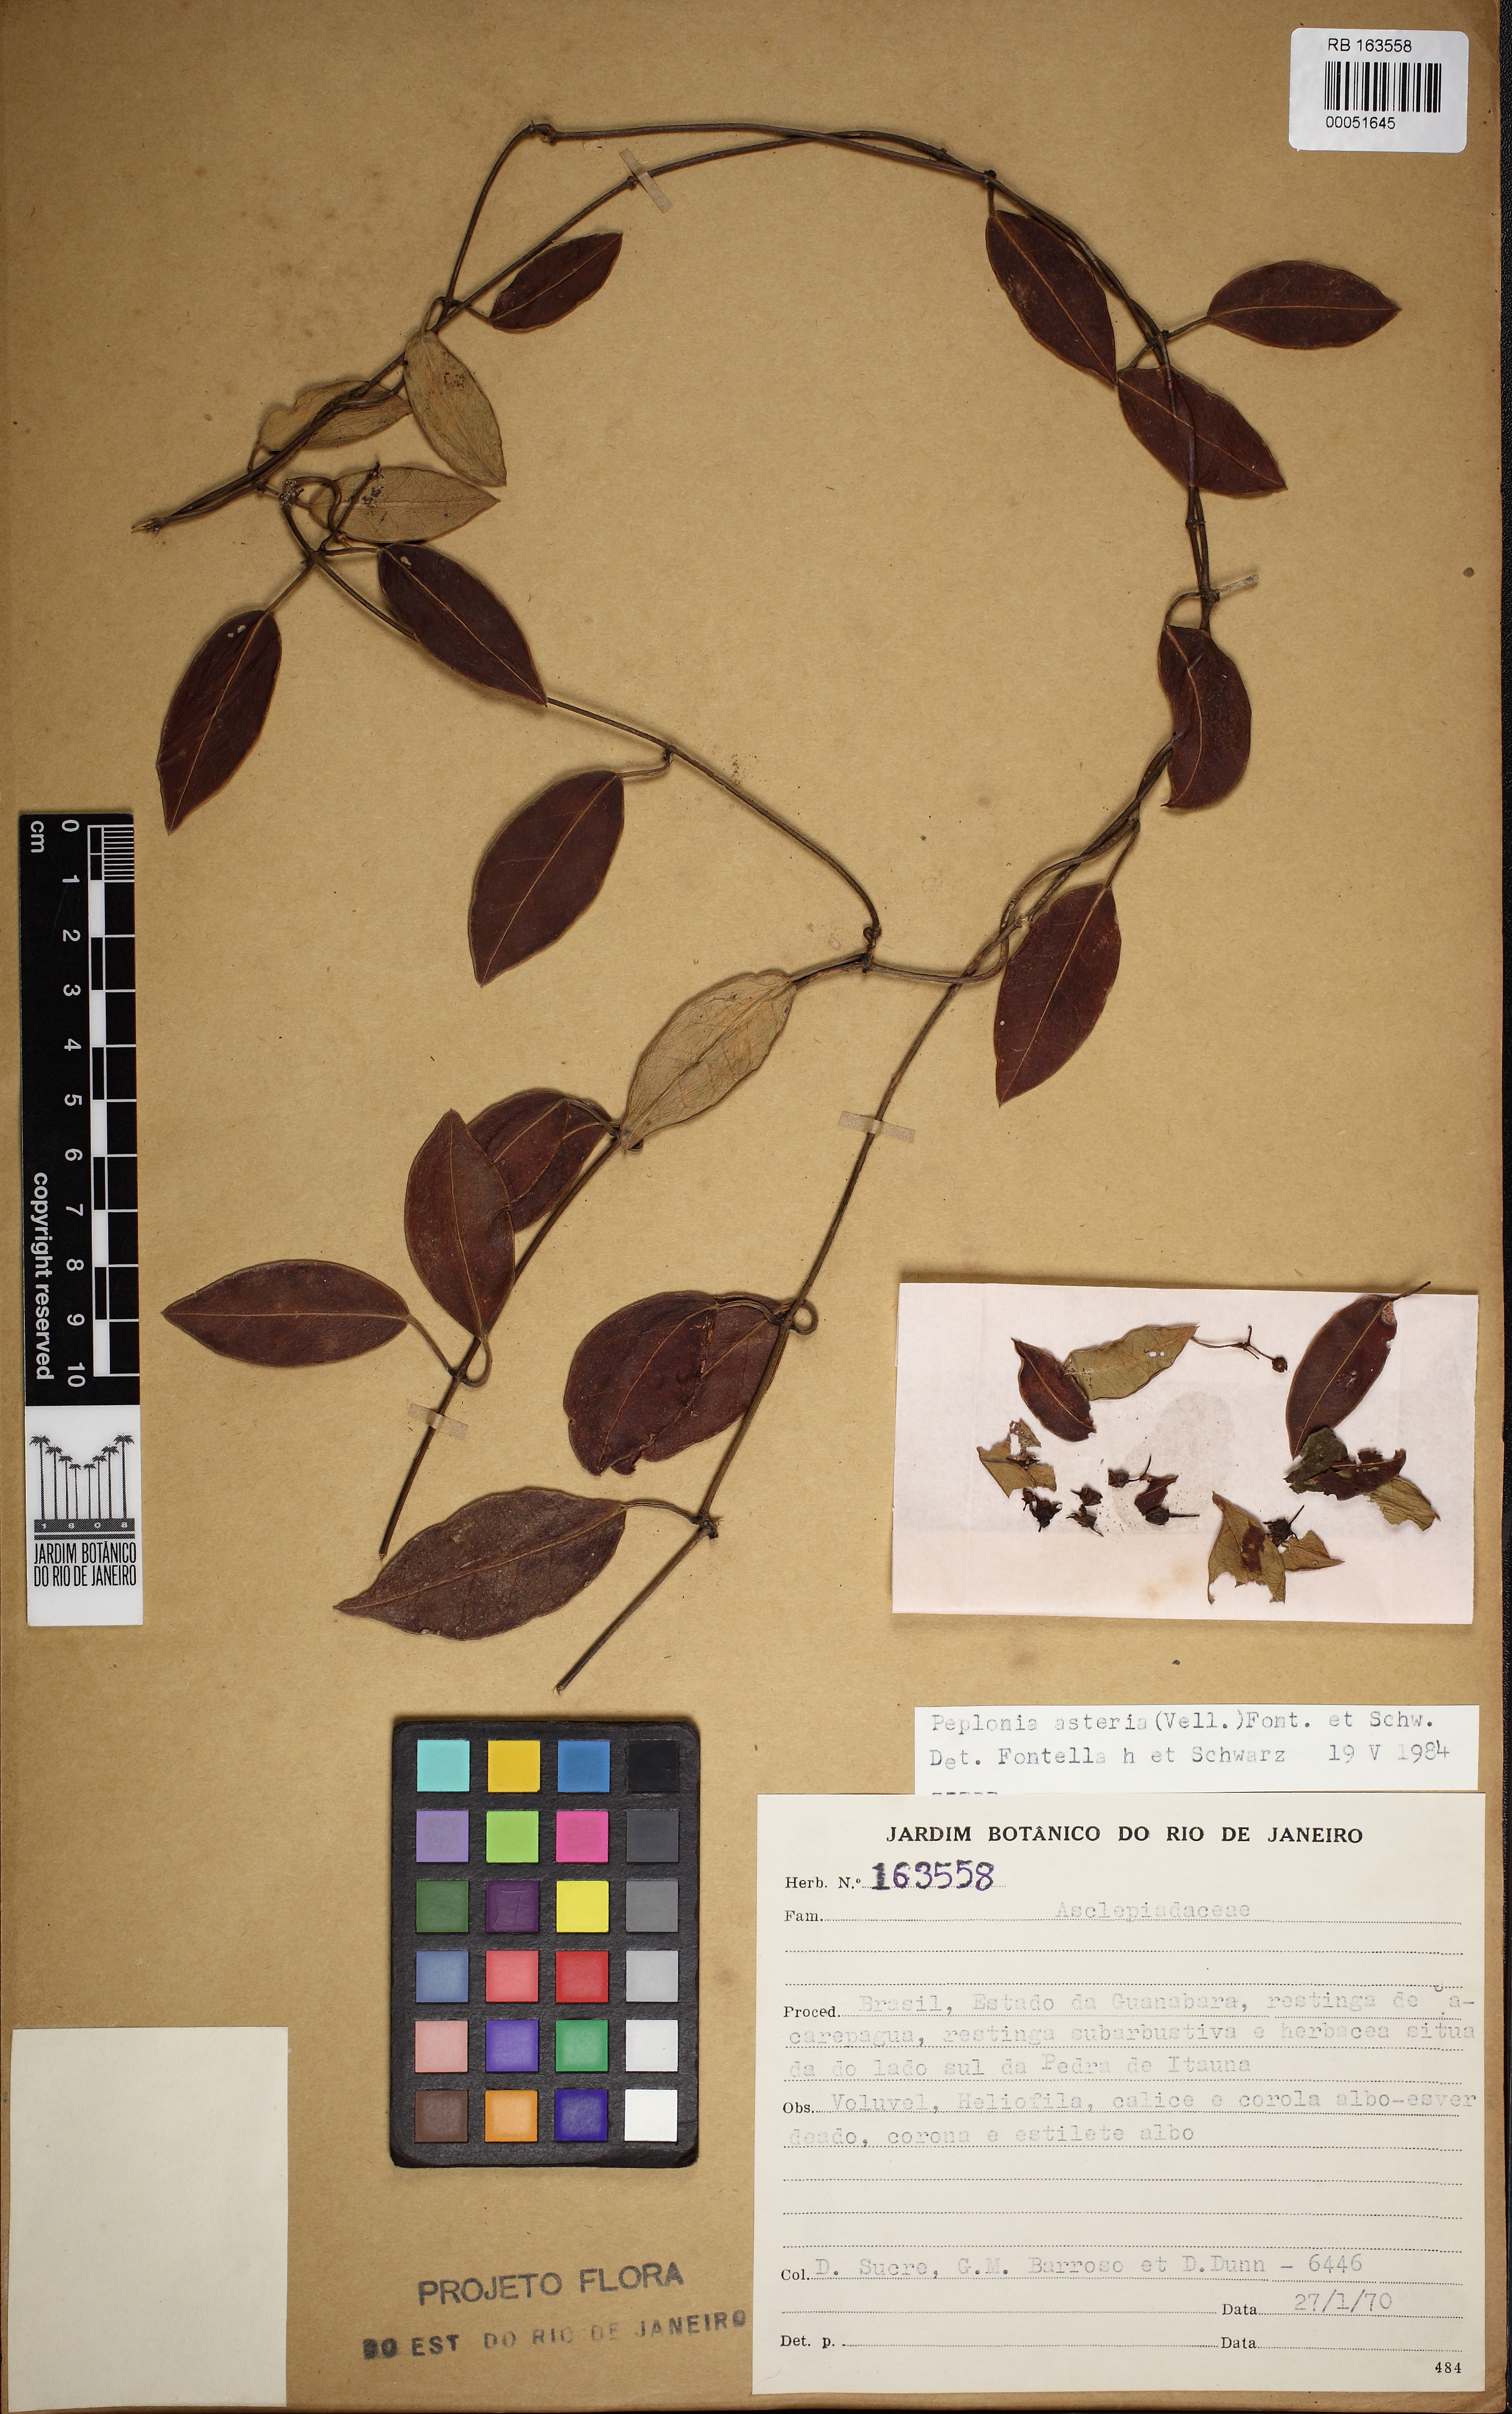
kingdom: Plantae
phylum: Tracheophyta
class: Magnoliopsida
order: Gentianales
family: Apocynaceae
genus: Peplonia
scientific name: Peplonia asteria
